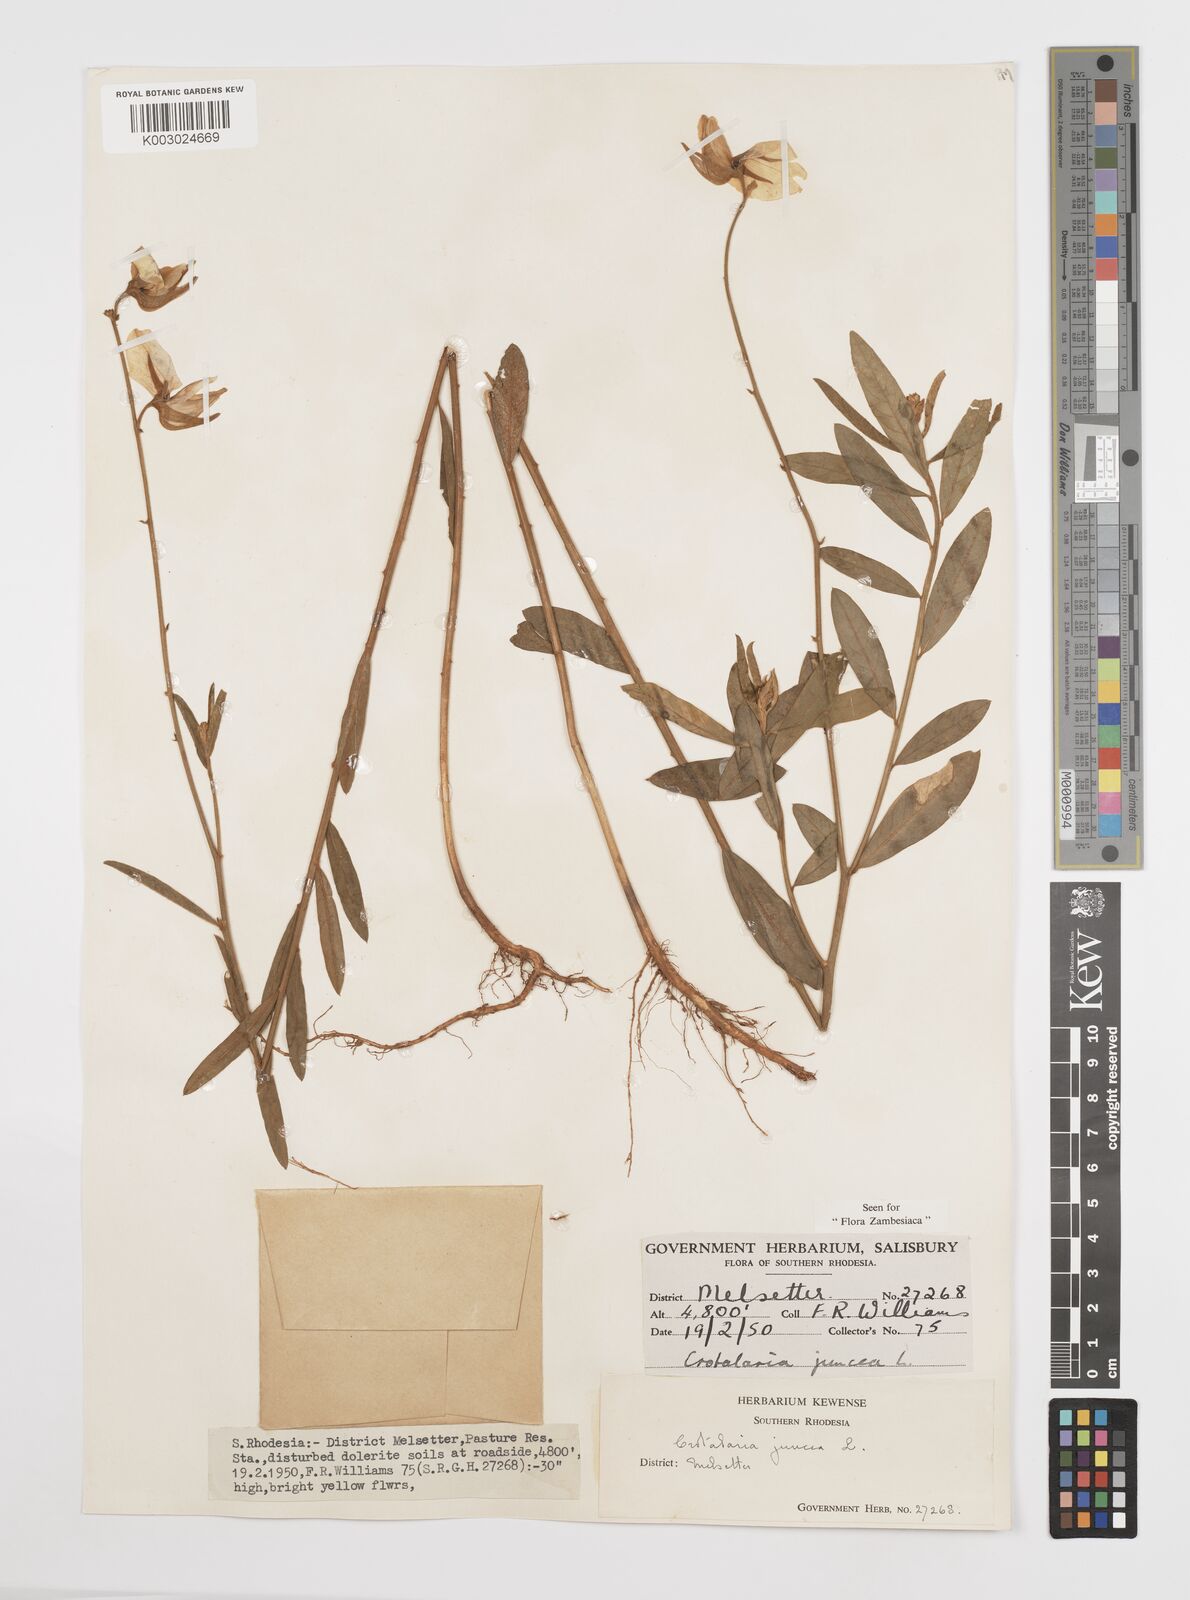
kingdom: Plantae
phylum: Tracheophyta
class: Magnoliopsida
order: Fabales
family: Fabaceae
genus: Crotalaria
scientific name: Crotalaria juncea
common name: Sunn hemp
